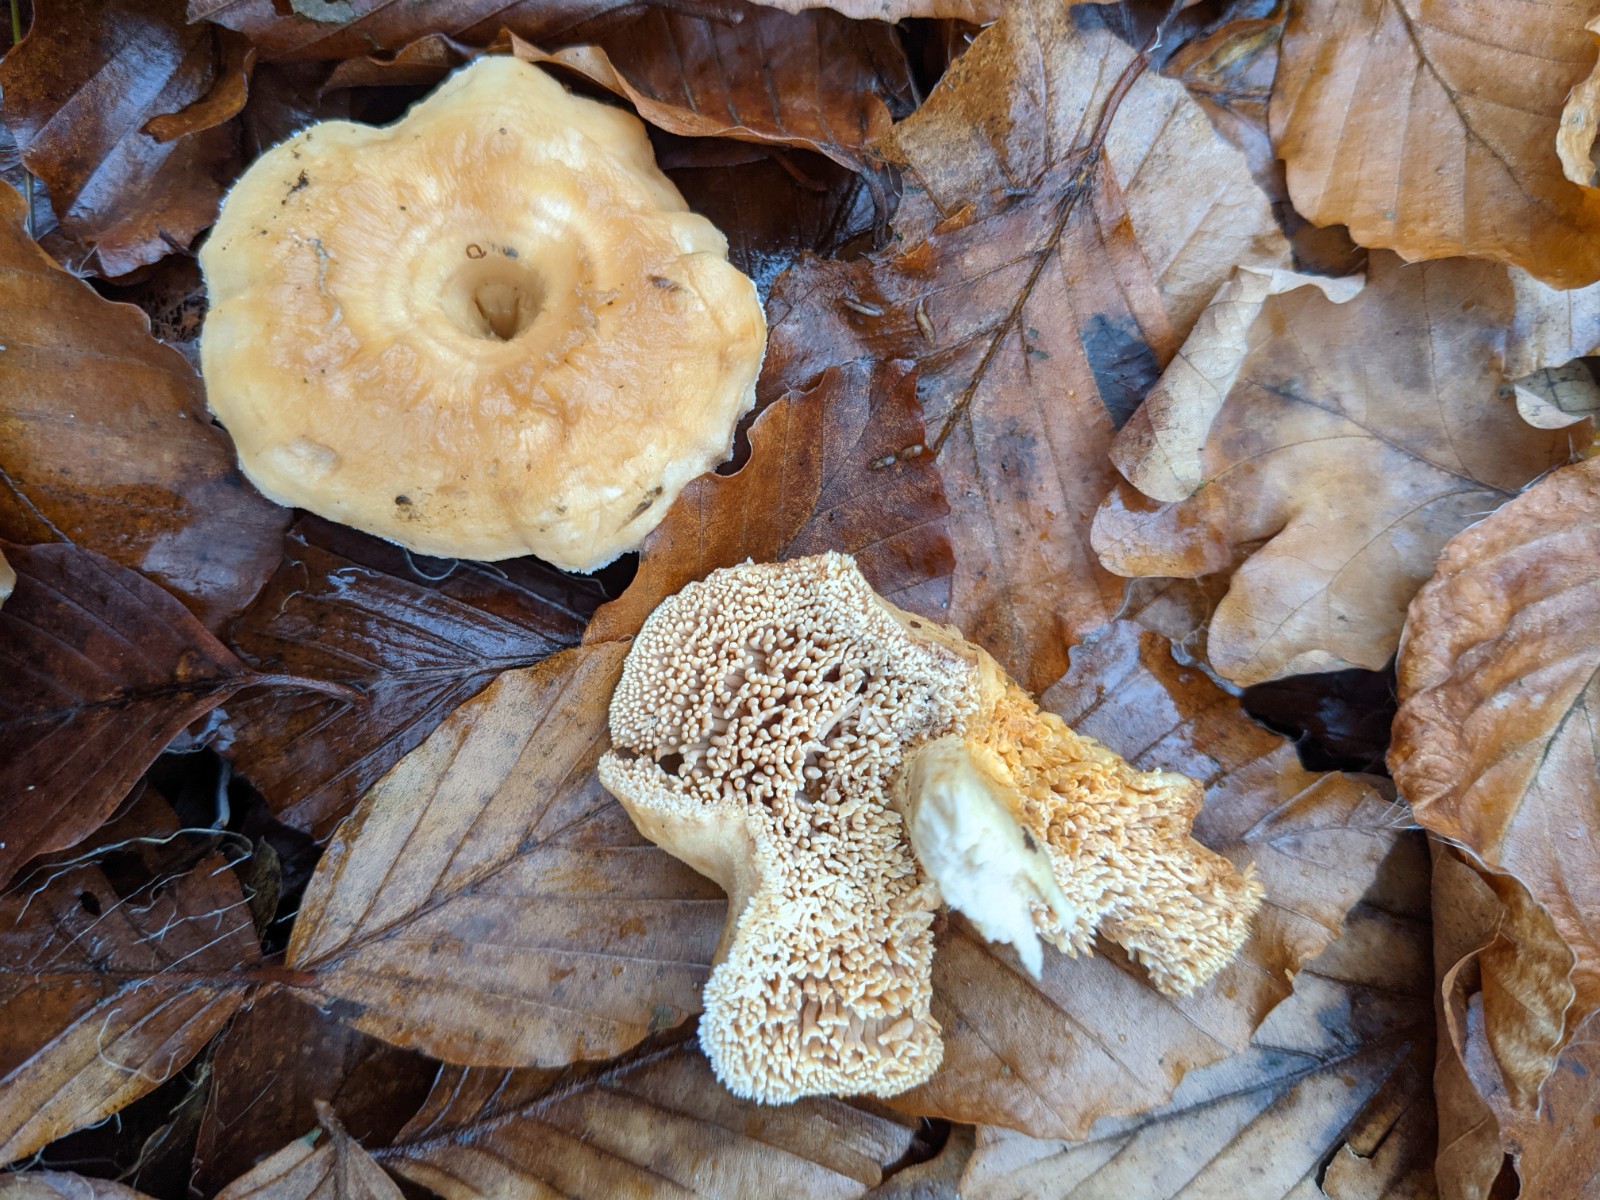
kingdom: Fungi
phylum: Basidiomycota
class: Agaricomycetes
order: Cantharellales
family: Hydnaceae
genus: Hydnum
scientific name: Hydnum umbilicatum
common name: navle-pigsvamp
